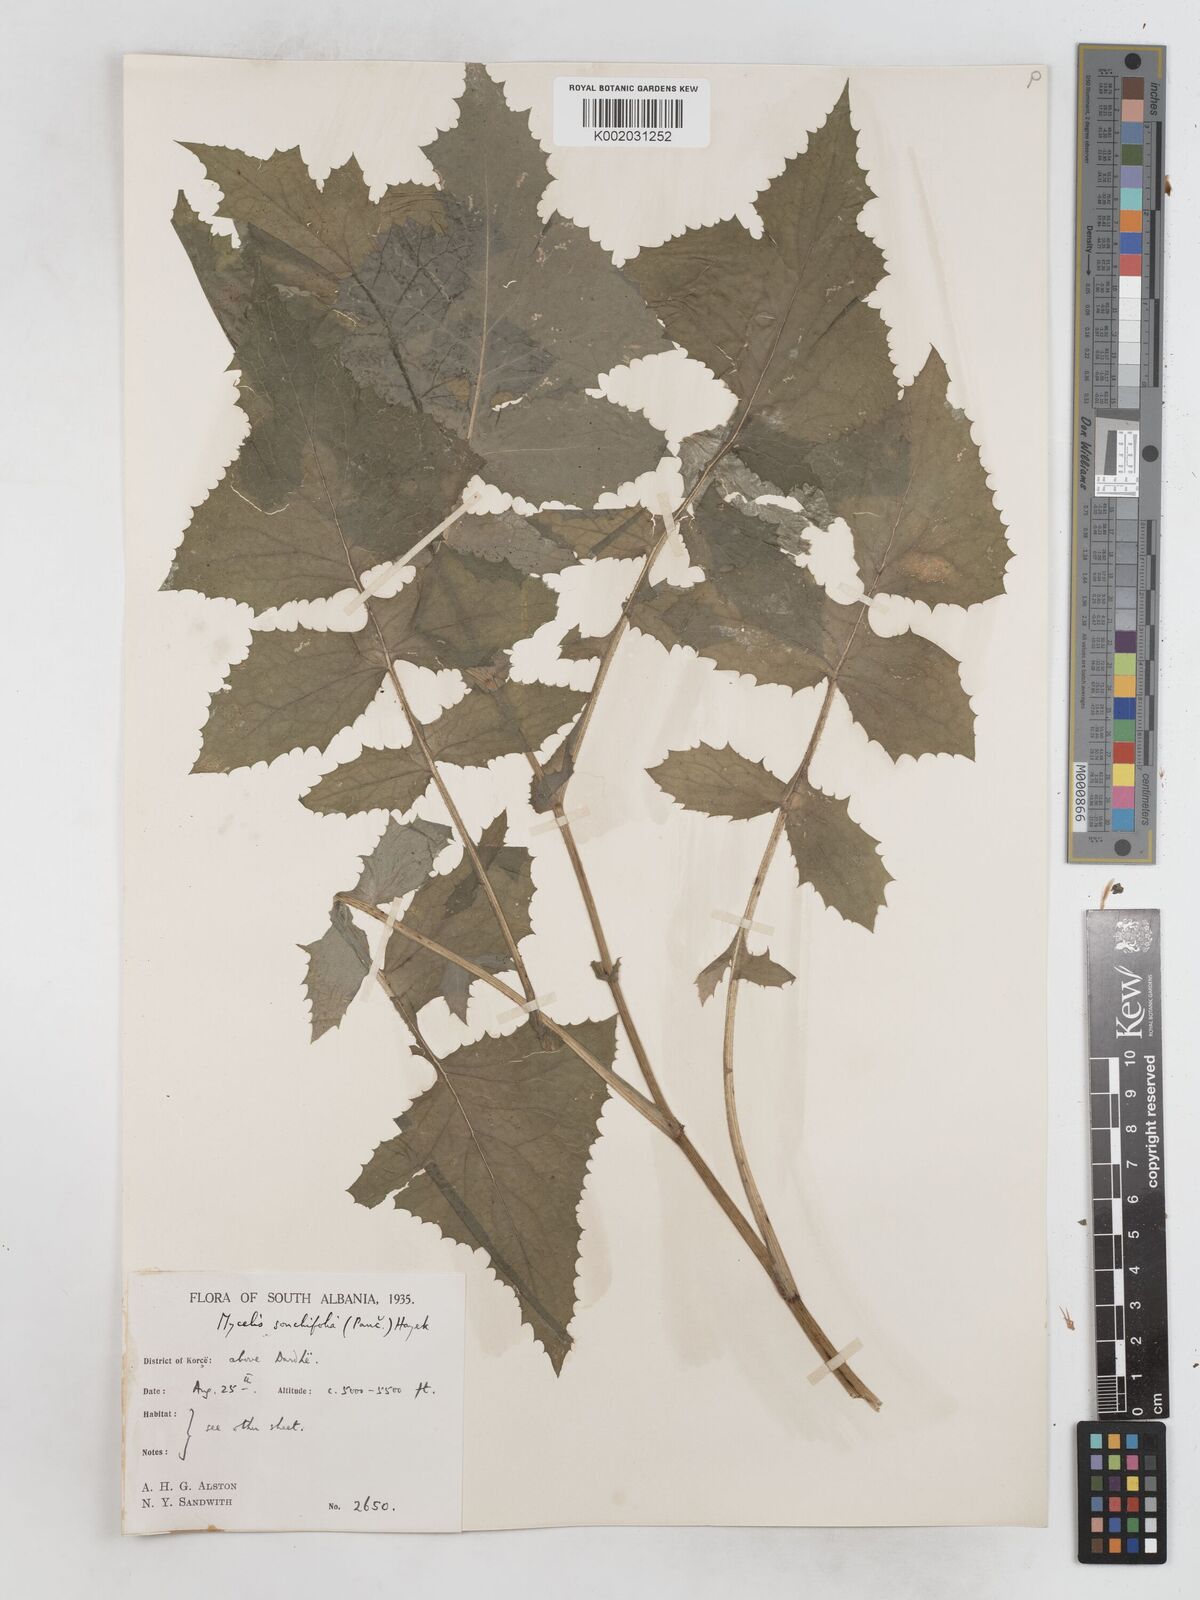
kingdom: Plantae
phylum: Tracheophyta
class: Magnoliopsida
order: Asterales
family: Asteraceae
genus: Lactuca
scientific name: Lactuca sonchifolia
